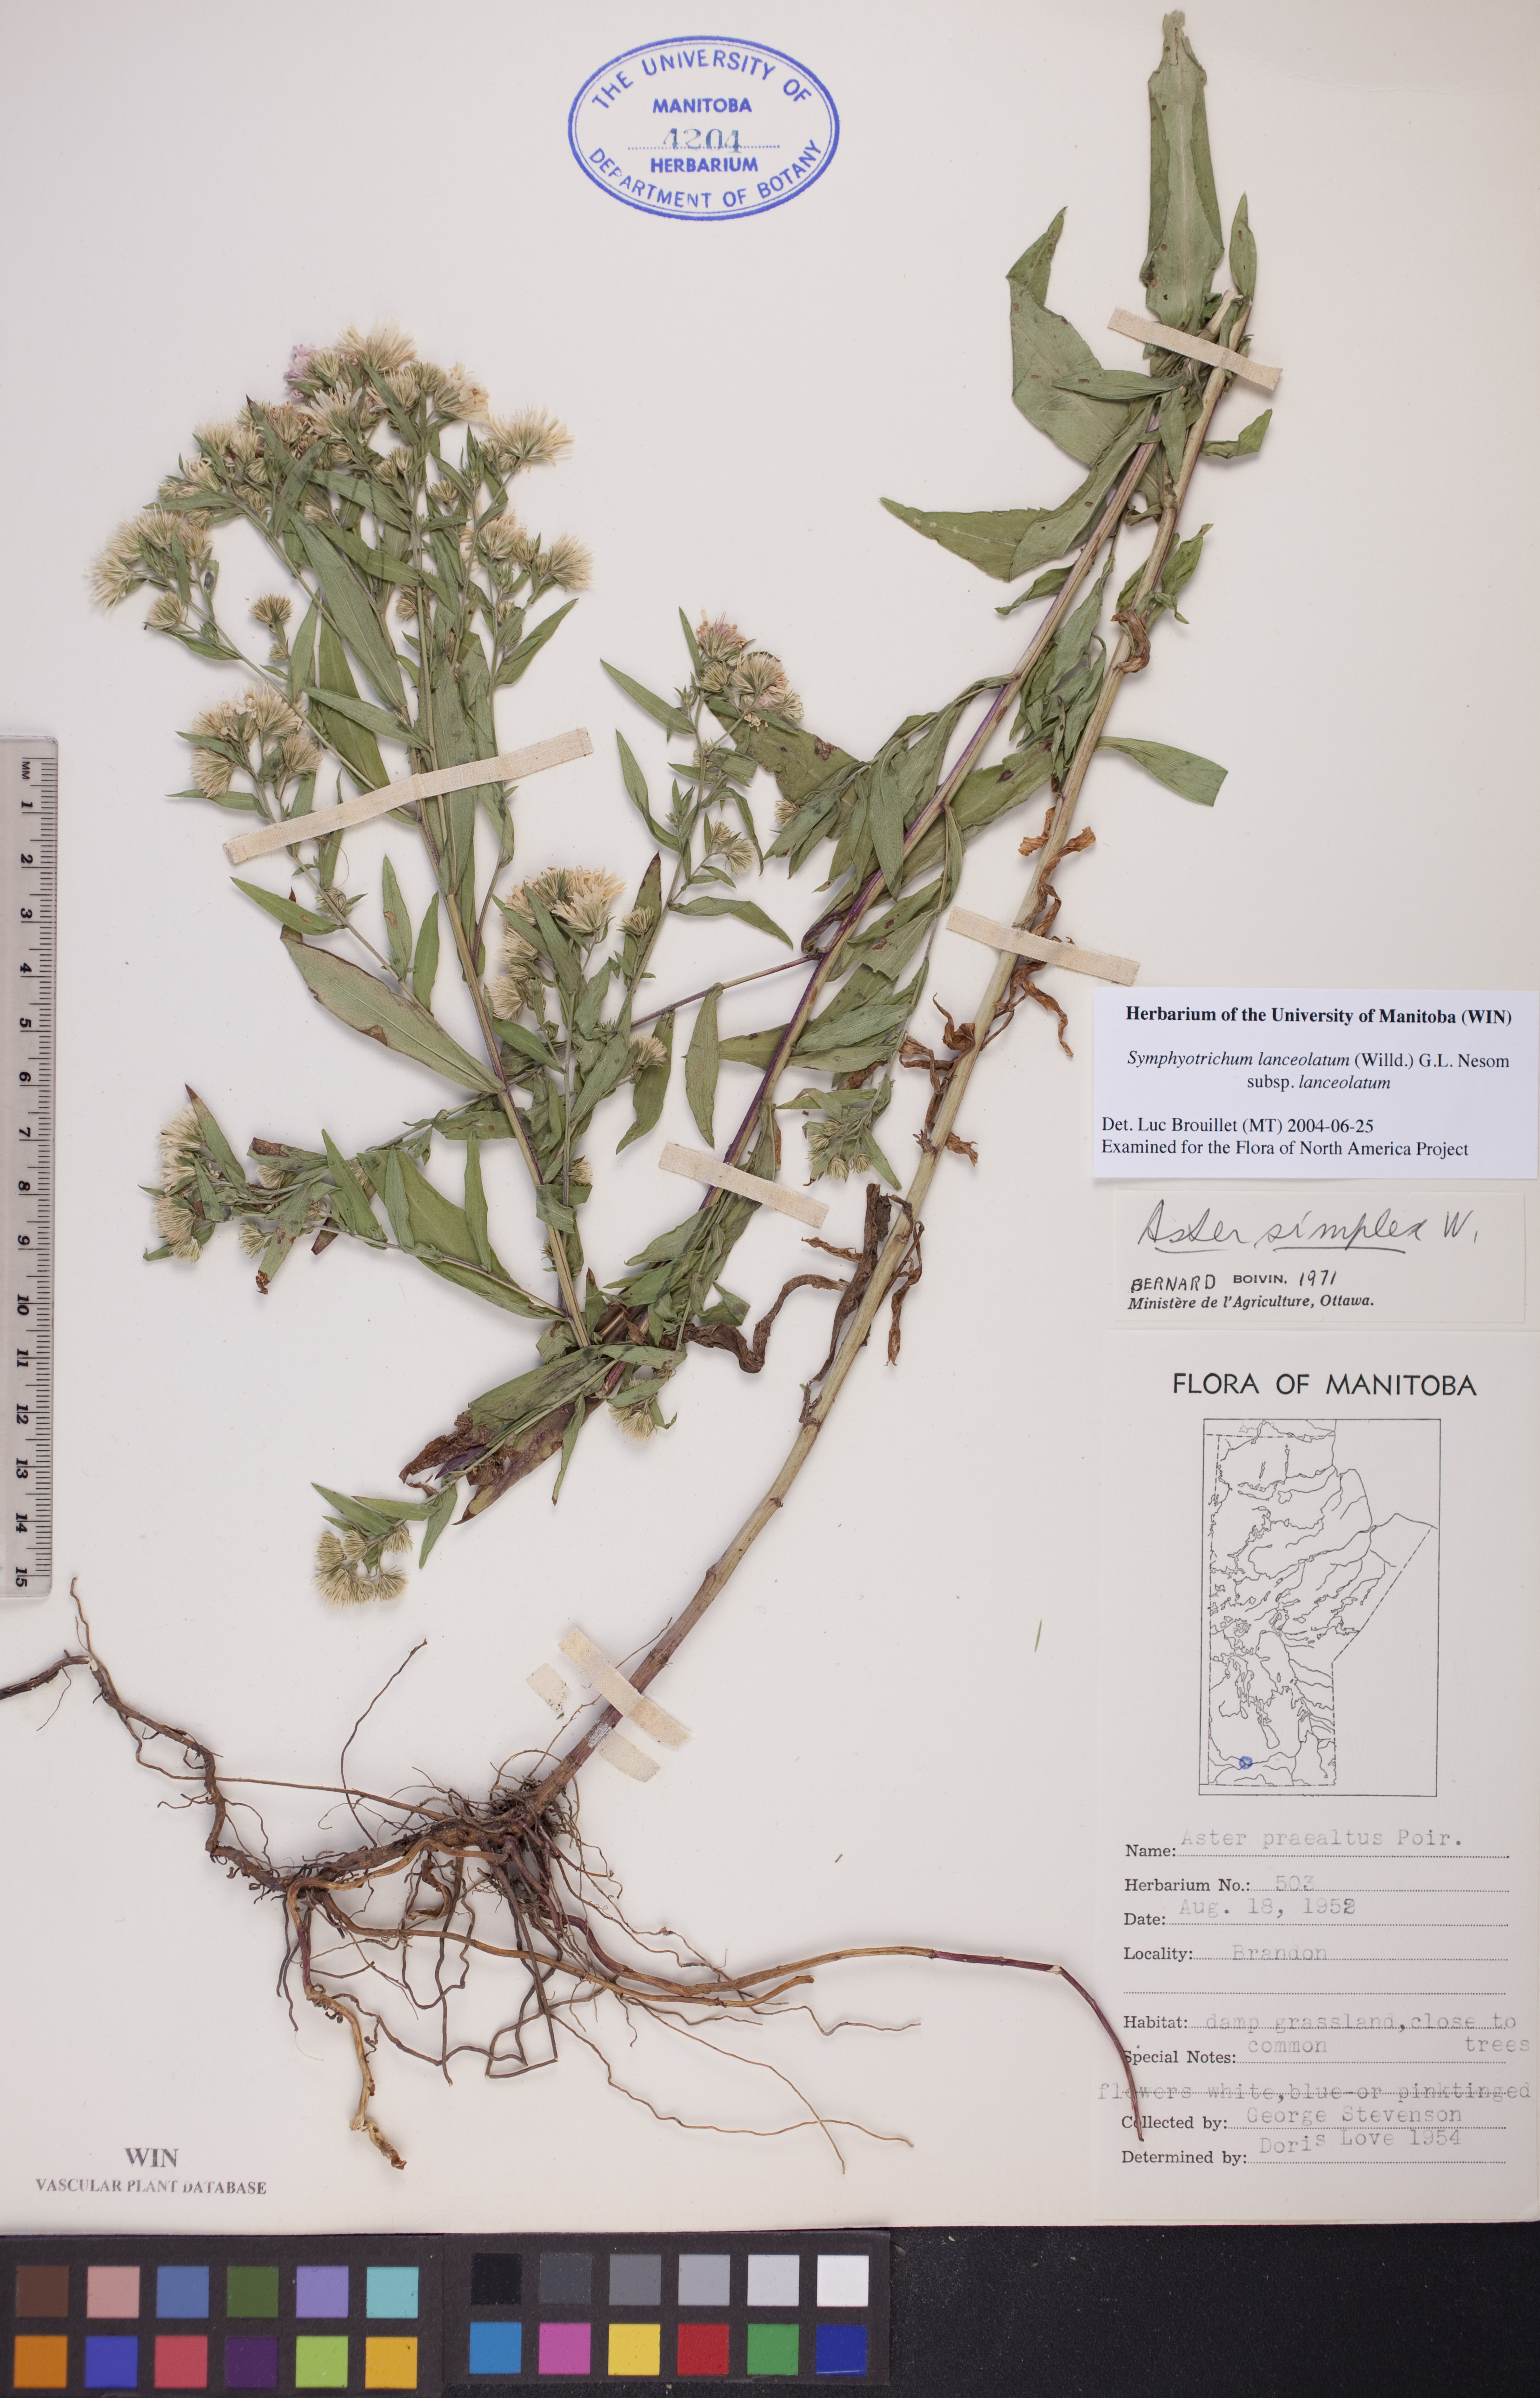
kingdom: Plantae
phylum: Tracheophyta
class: Magnoliopsida
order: Asterales
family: Asteraceae
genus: Symphyotrichum
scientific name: Symphyotrichum lanceolatum
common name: Panicled aster
